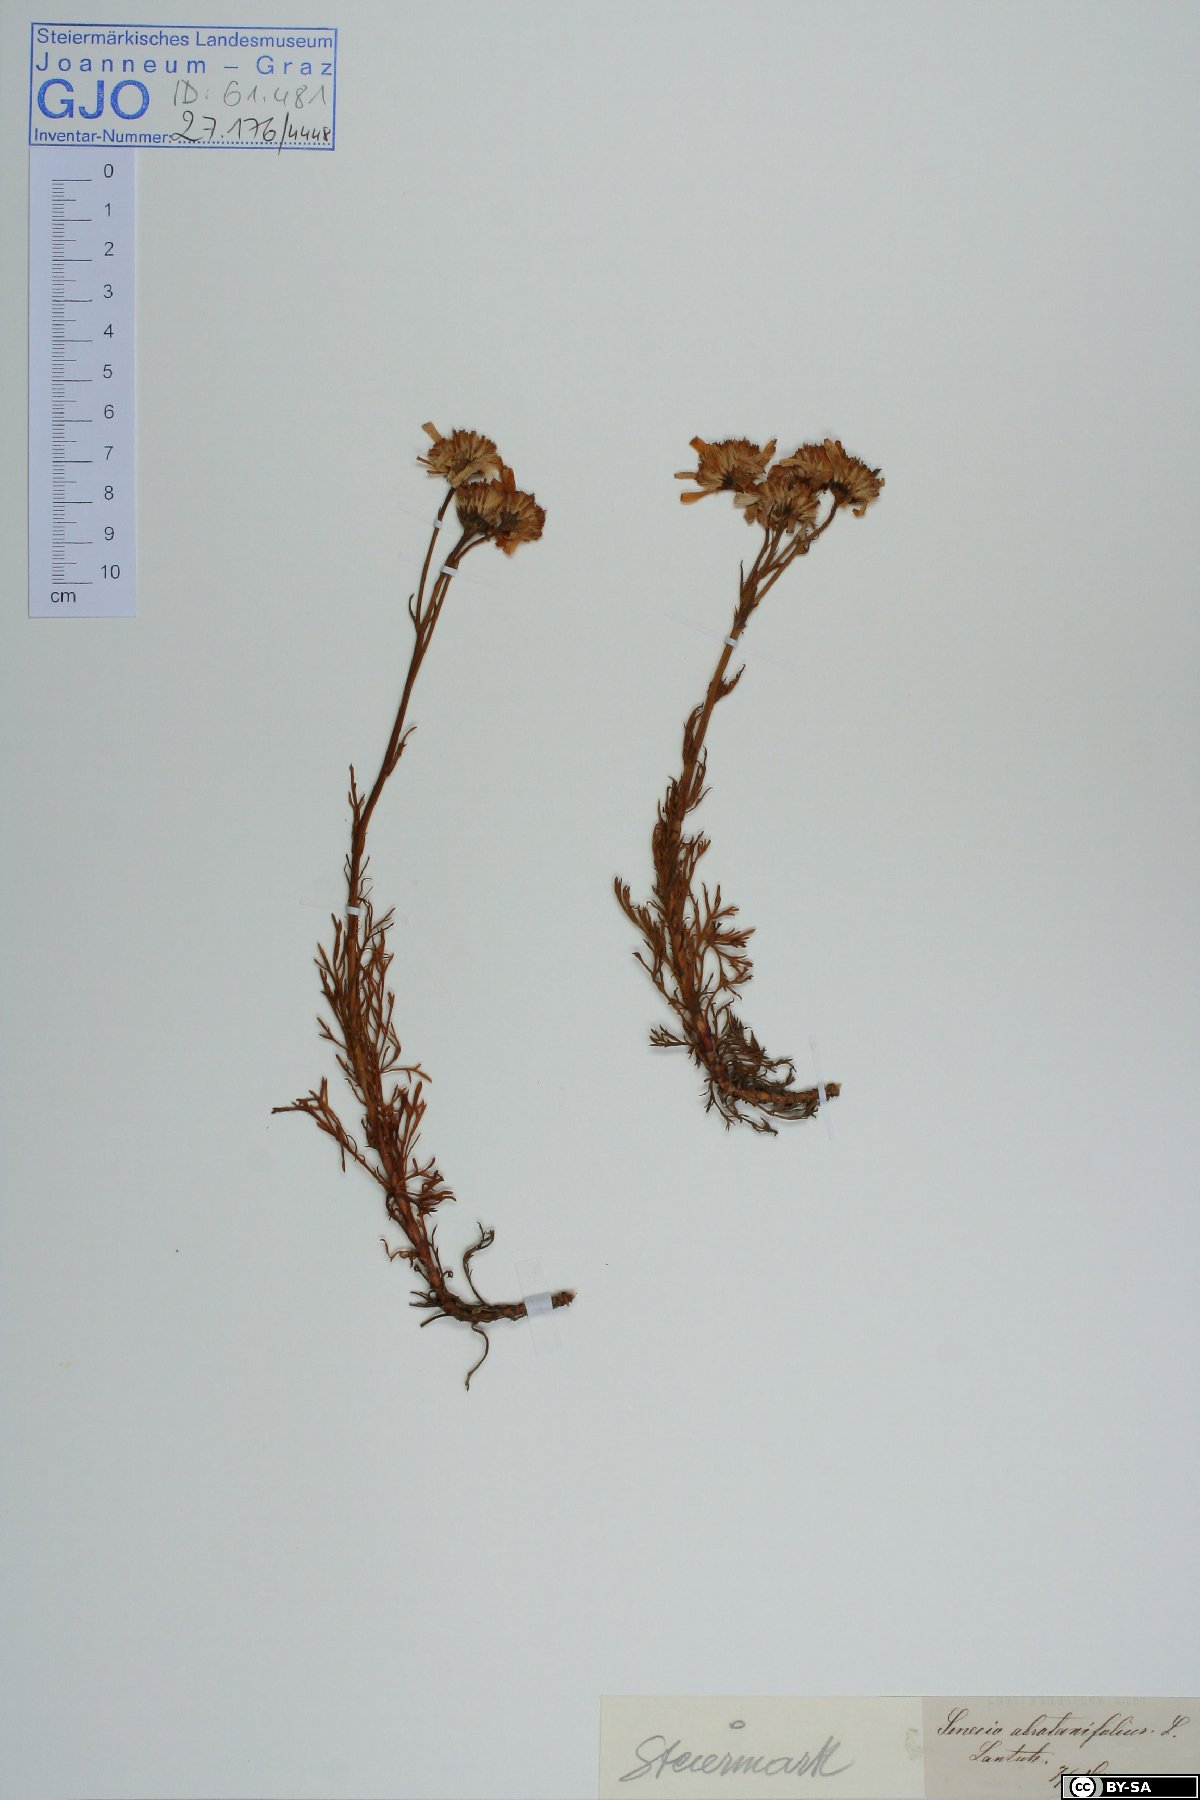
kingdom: Plantae
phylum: Tracheophyta
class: Magnoliopsida
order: Asterales
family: Asteraceae
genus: Jacobaea
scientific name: Jacobaea abrotanifolia
